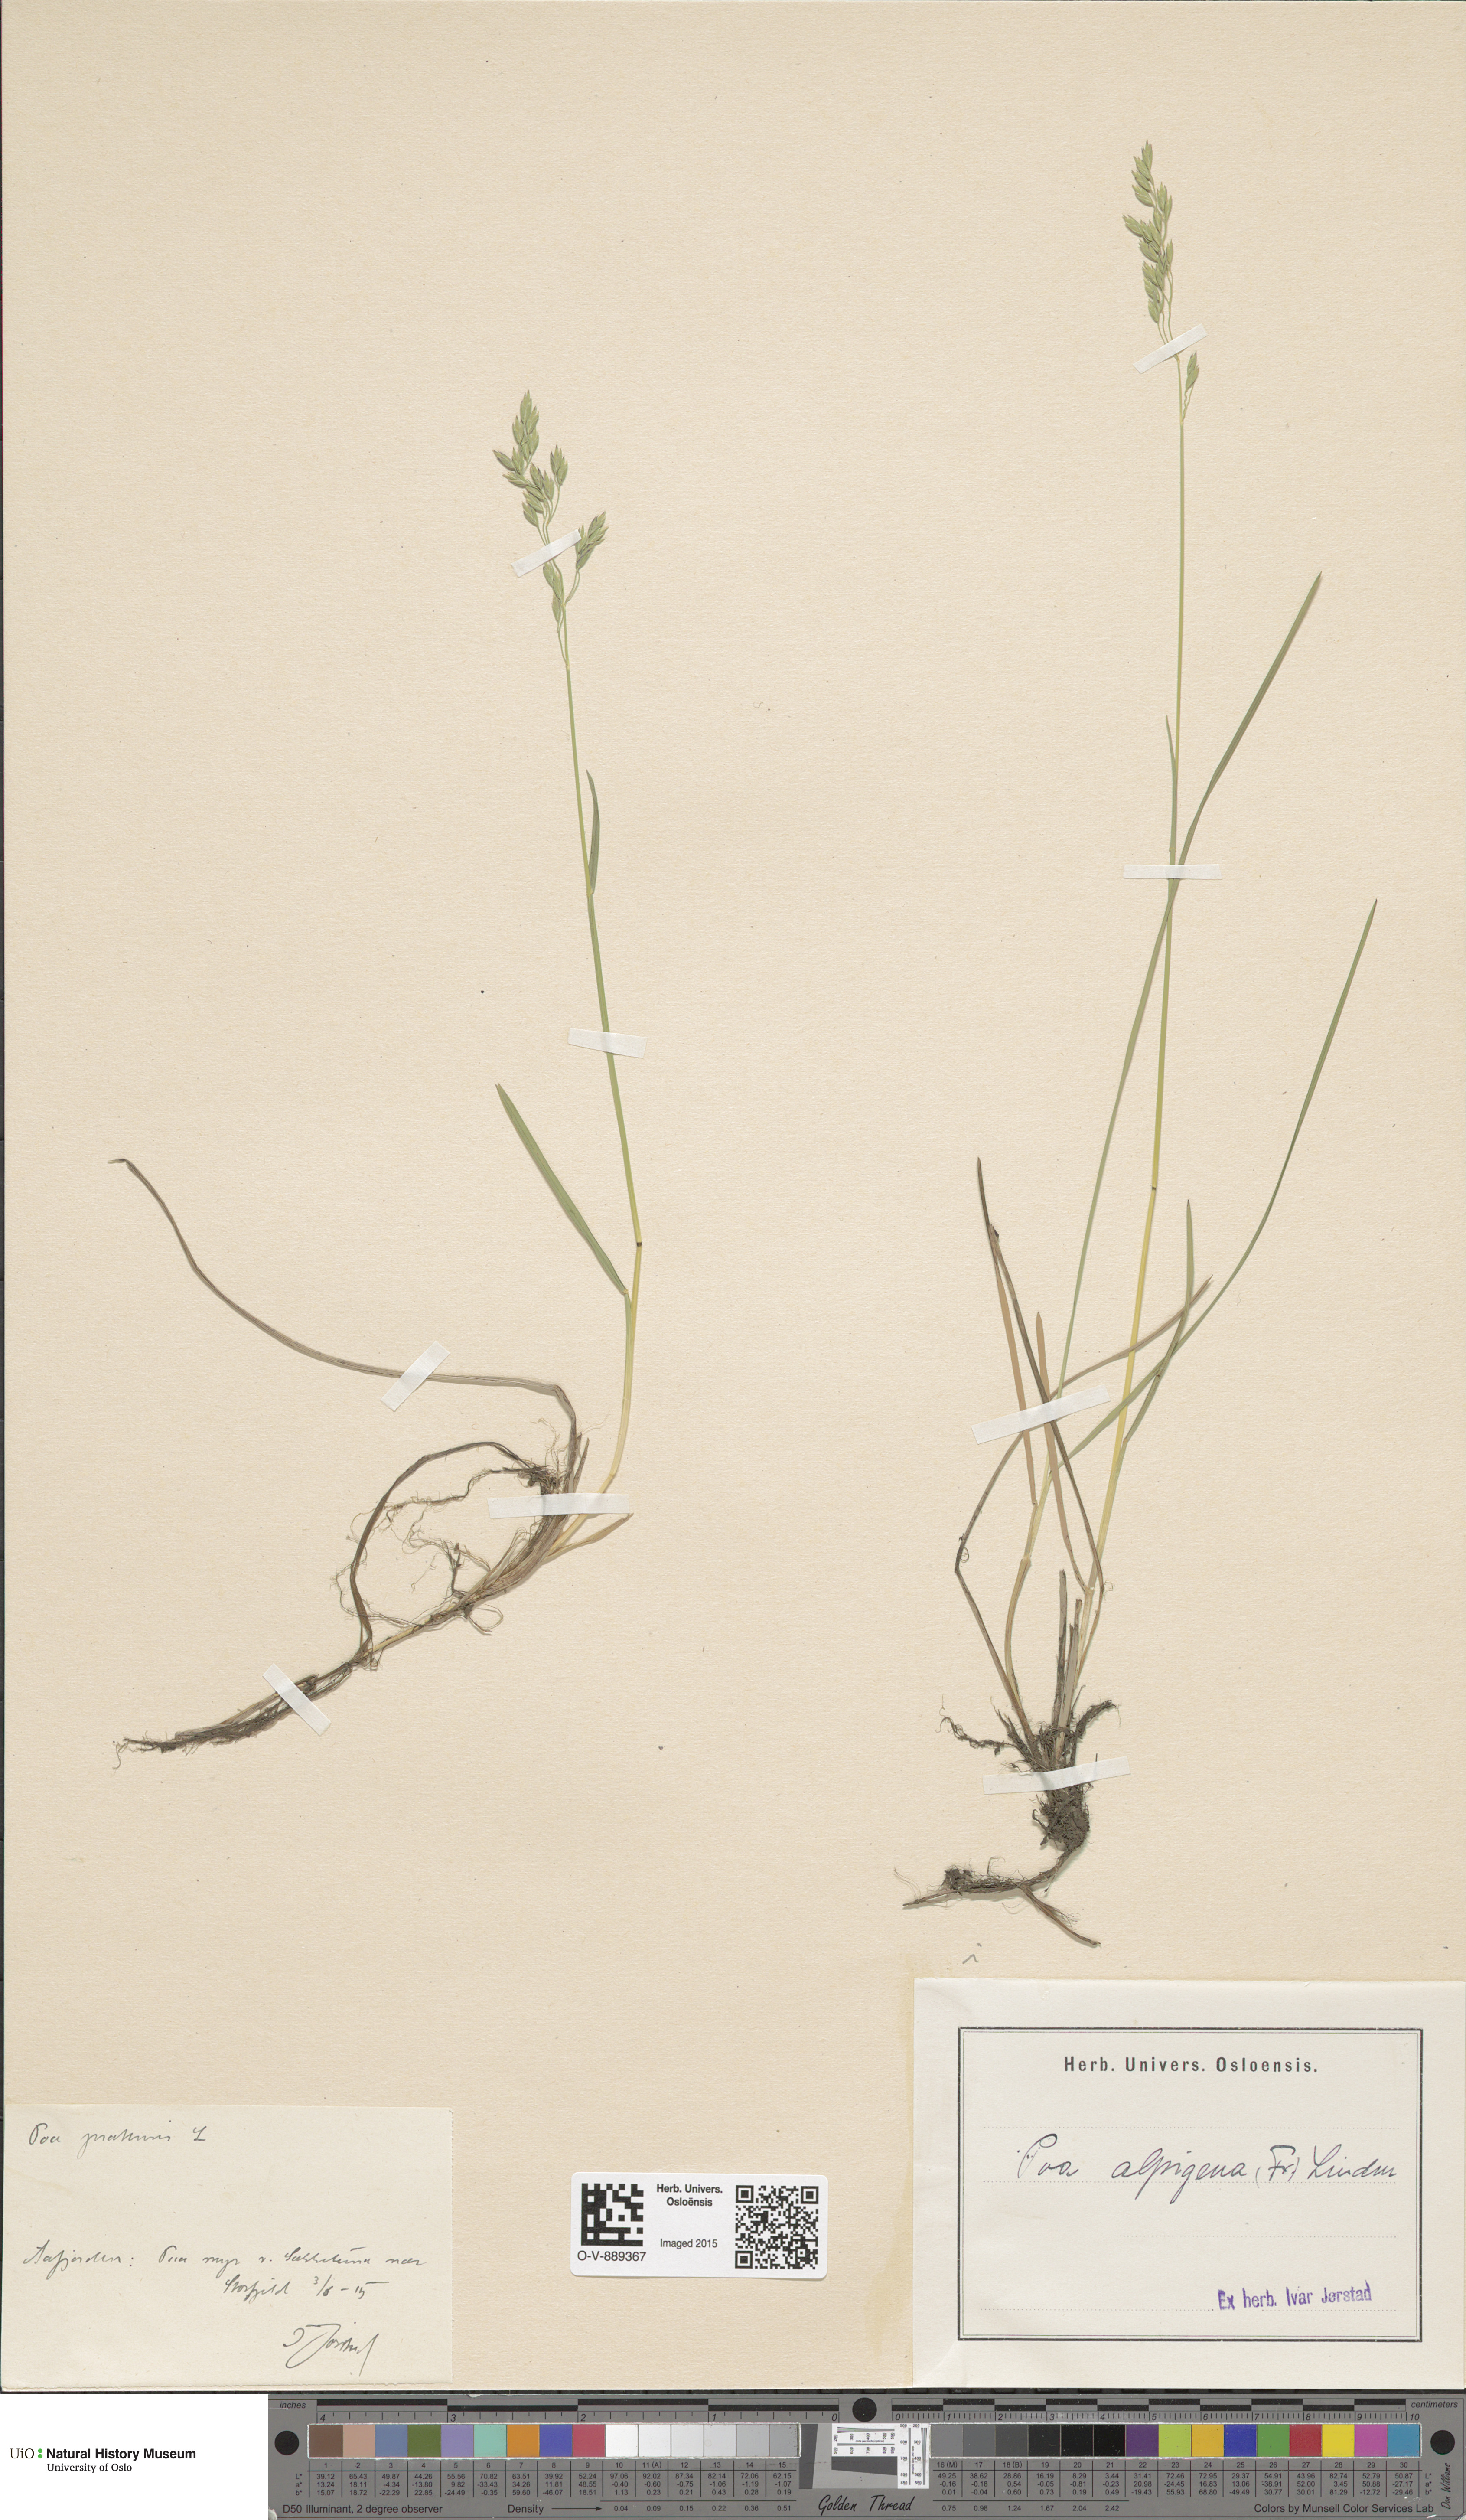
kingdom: Plantae
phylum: Tracheophyta
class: Liliopsida
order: Poales
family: Poaceae
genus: Poa
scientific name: Poa alpigena
